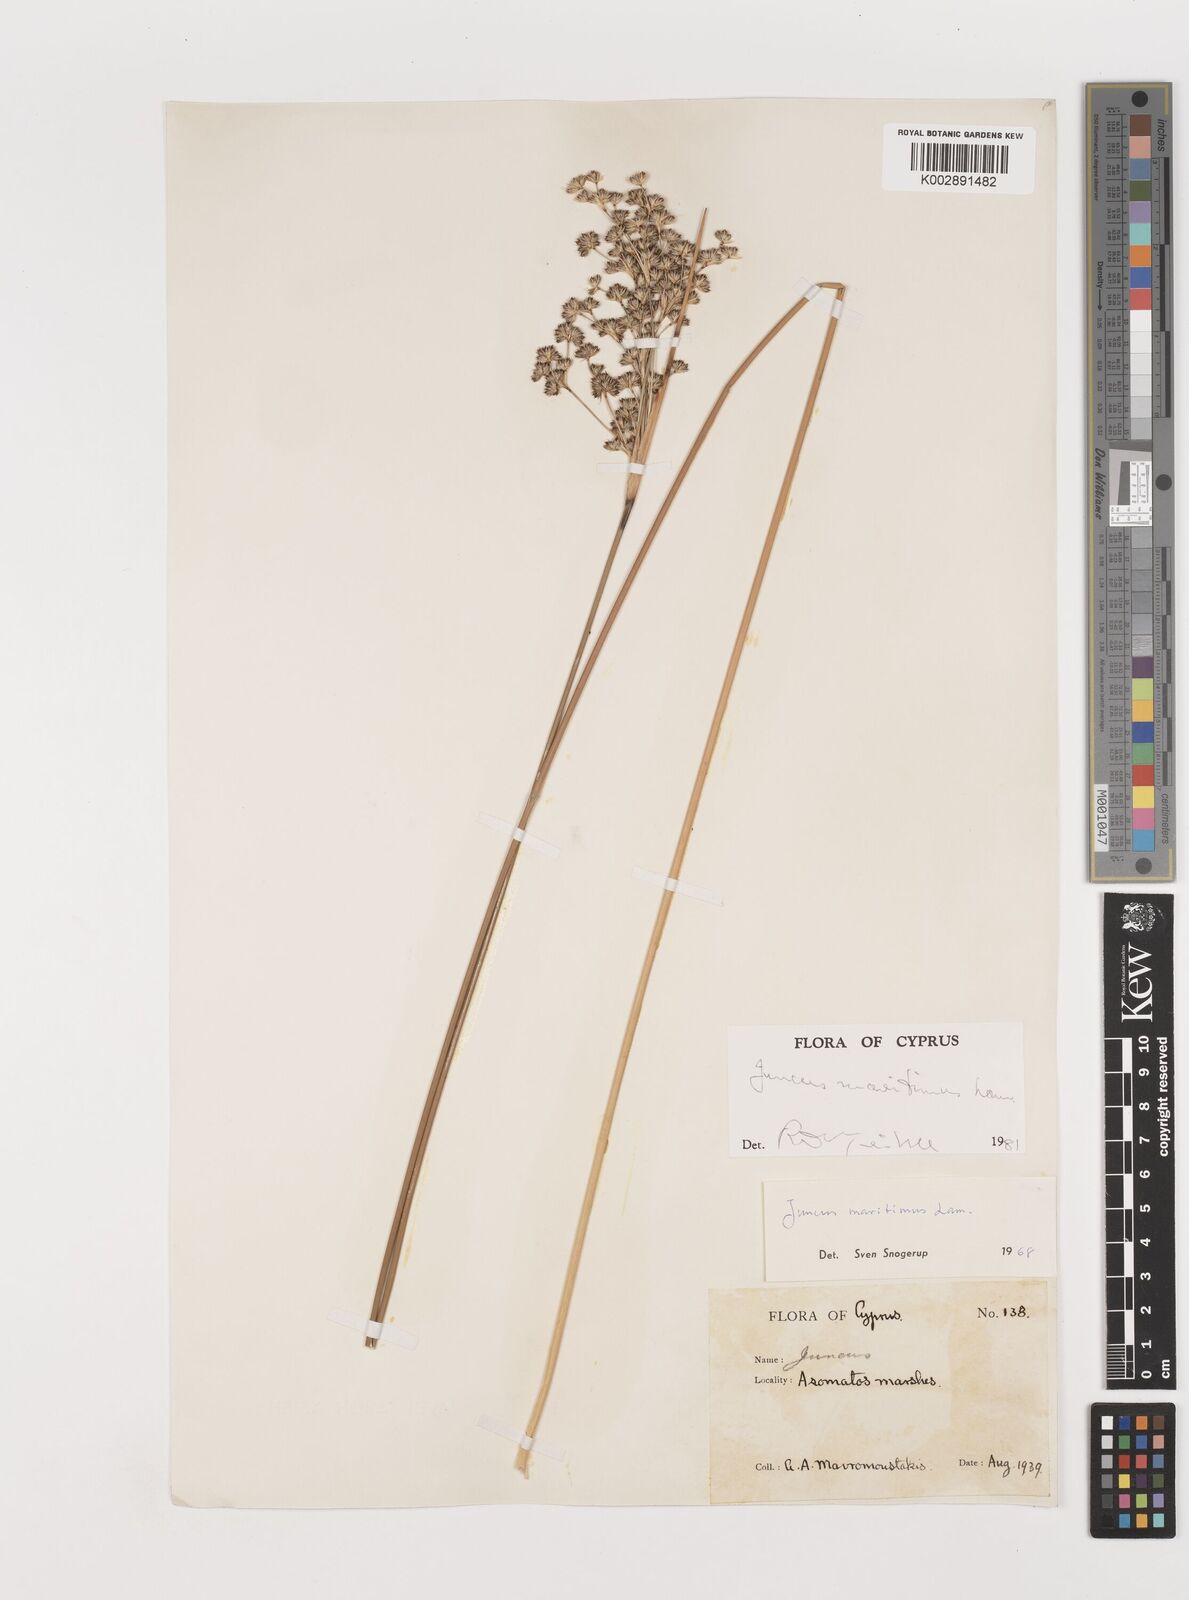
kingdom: Plantae
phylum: Tracheophyta
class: Liliopsida
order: Poales
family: Juncaceae
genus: Juncus
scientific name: Juncus maritimus
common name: Sea rush
